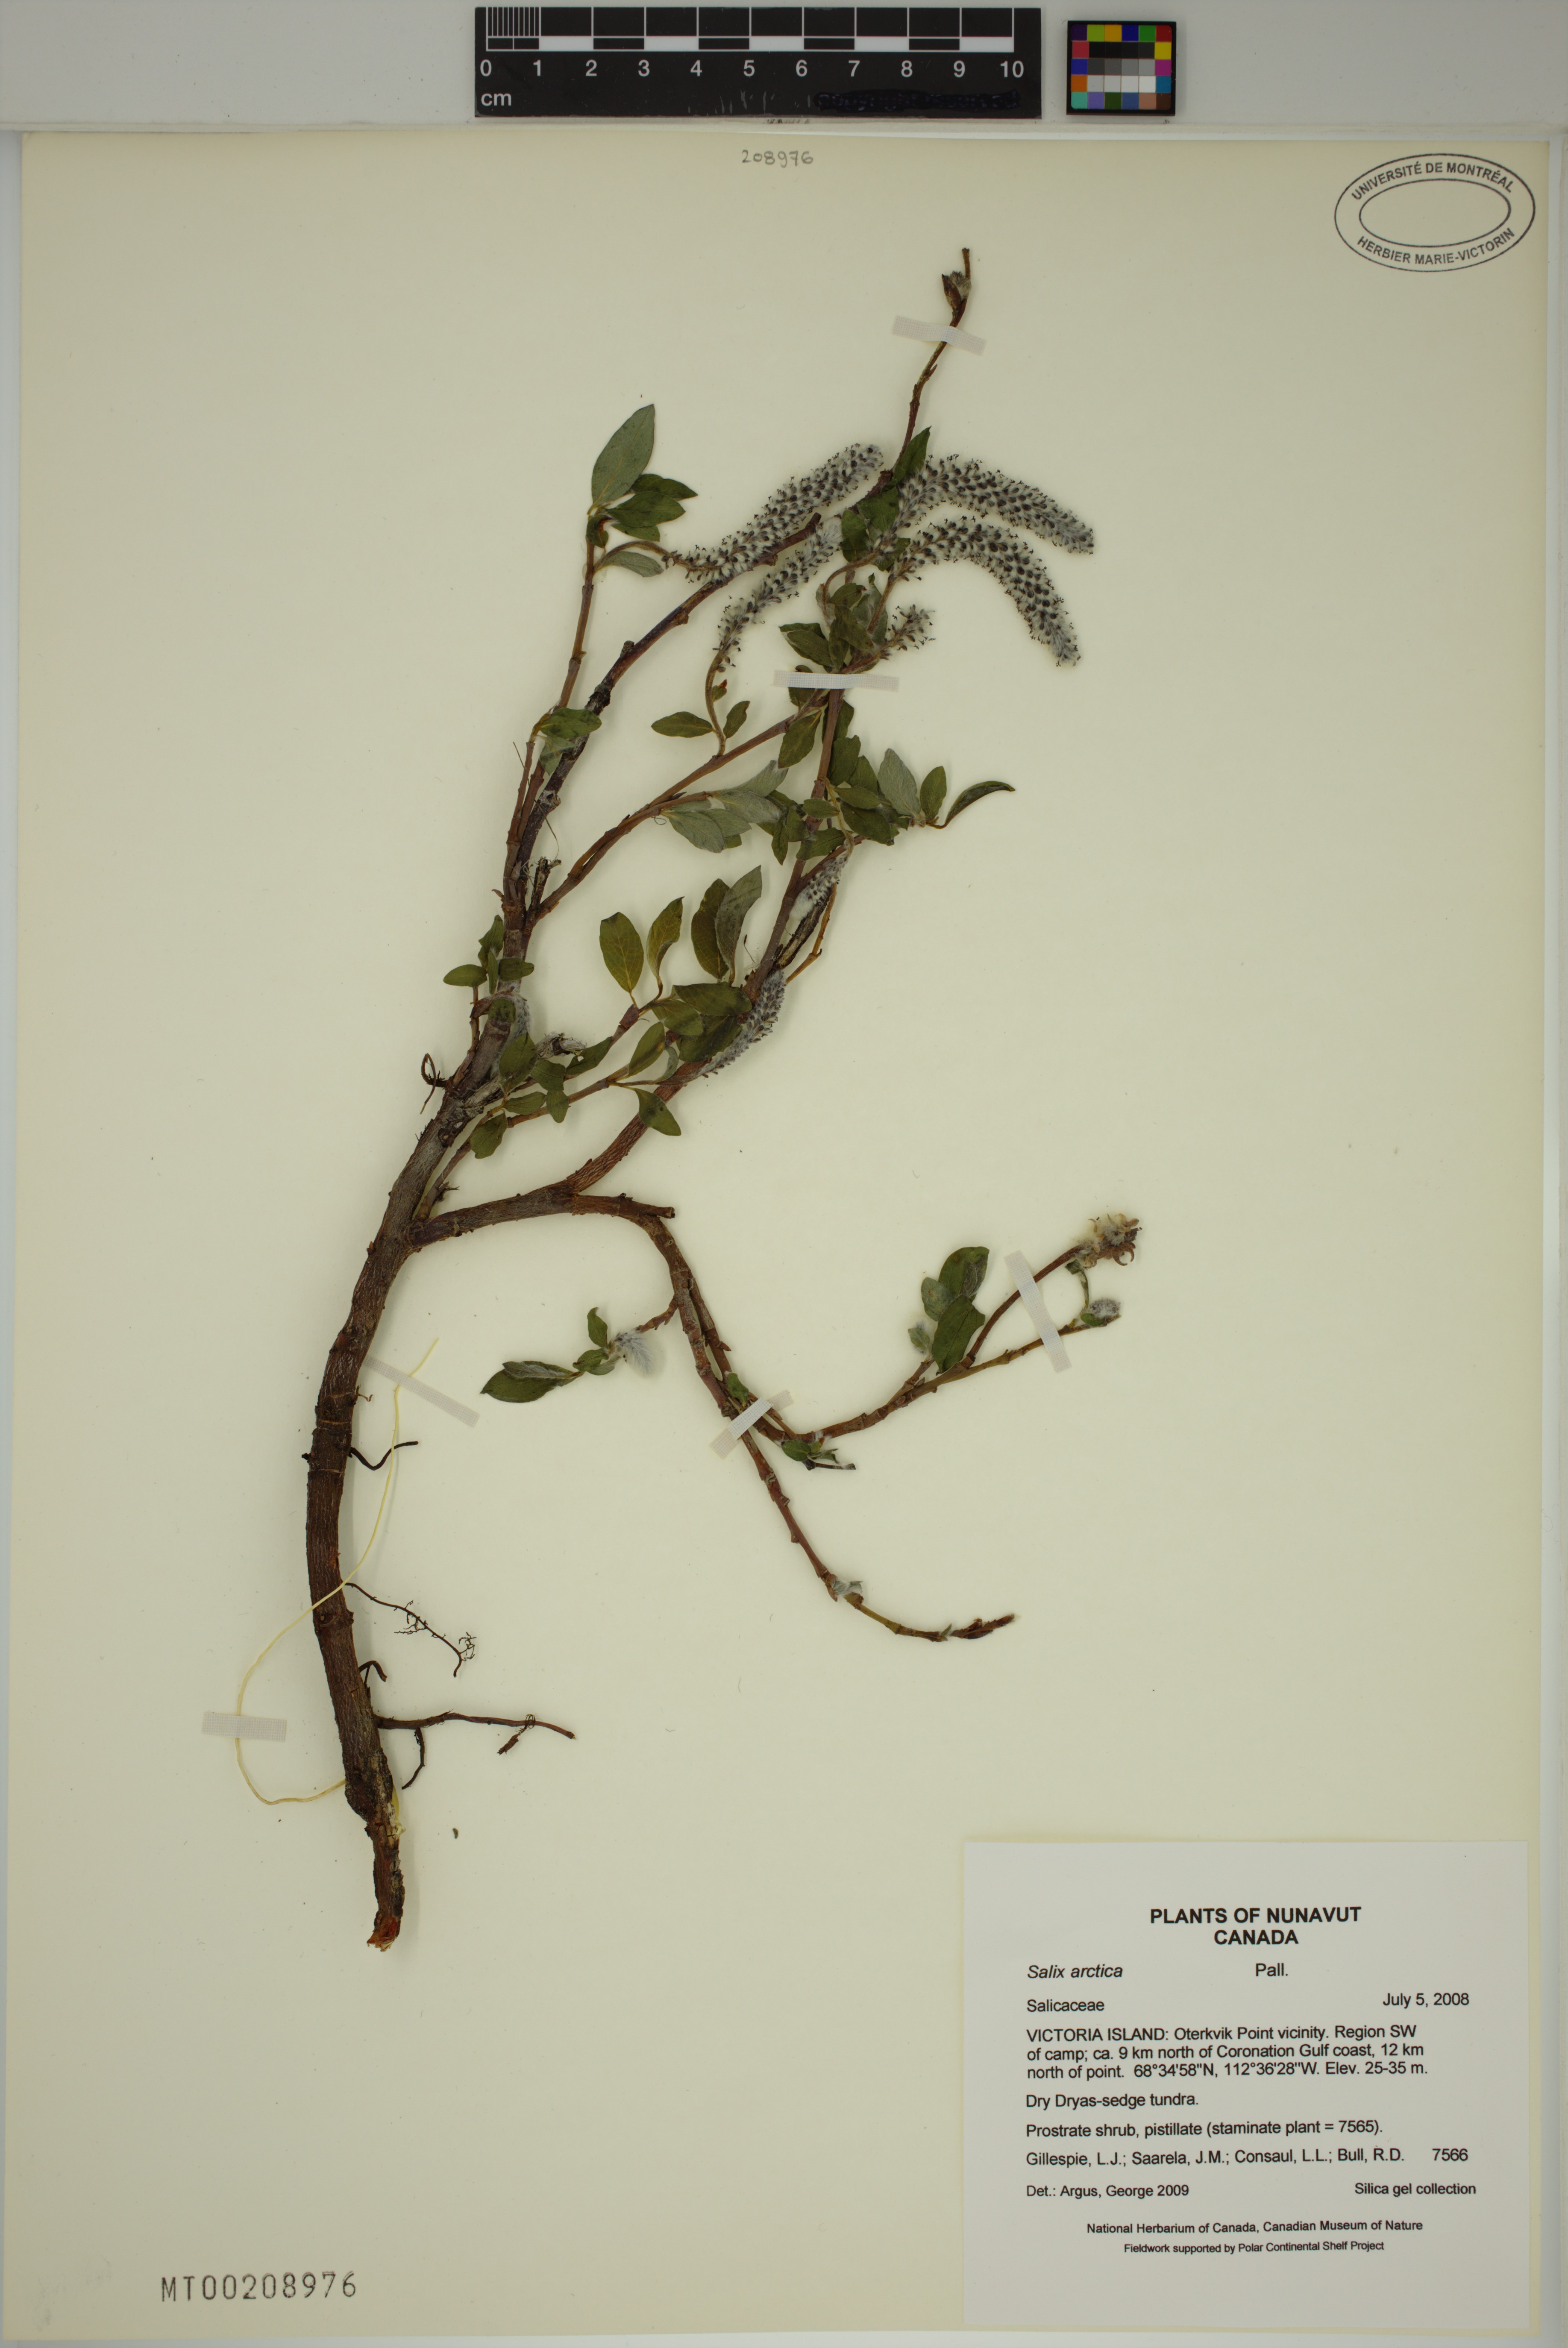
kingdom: Plantae
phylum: Tracheophyta
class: Magnoliopsida
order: Malpighiales
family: Salicaceae
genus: Salix
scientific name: Salix arctica
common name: Arctic willow
